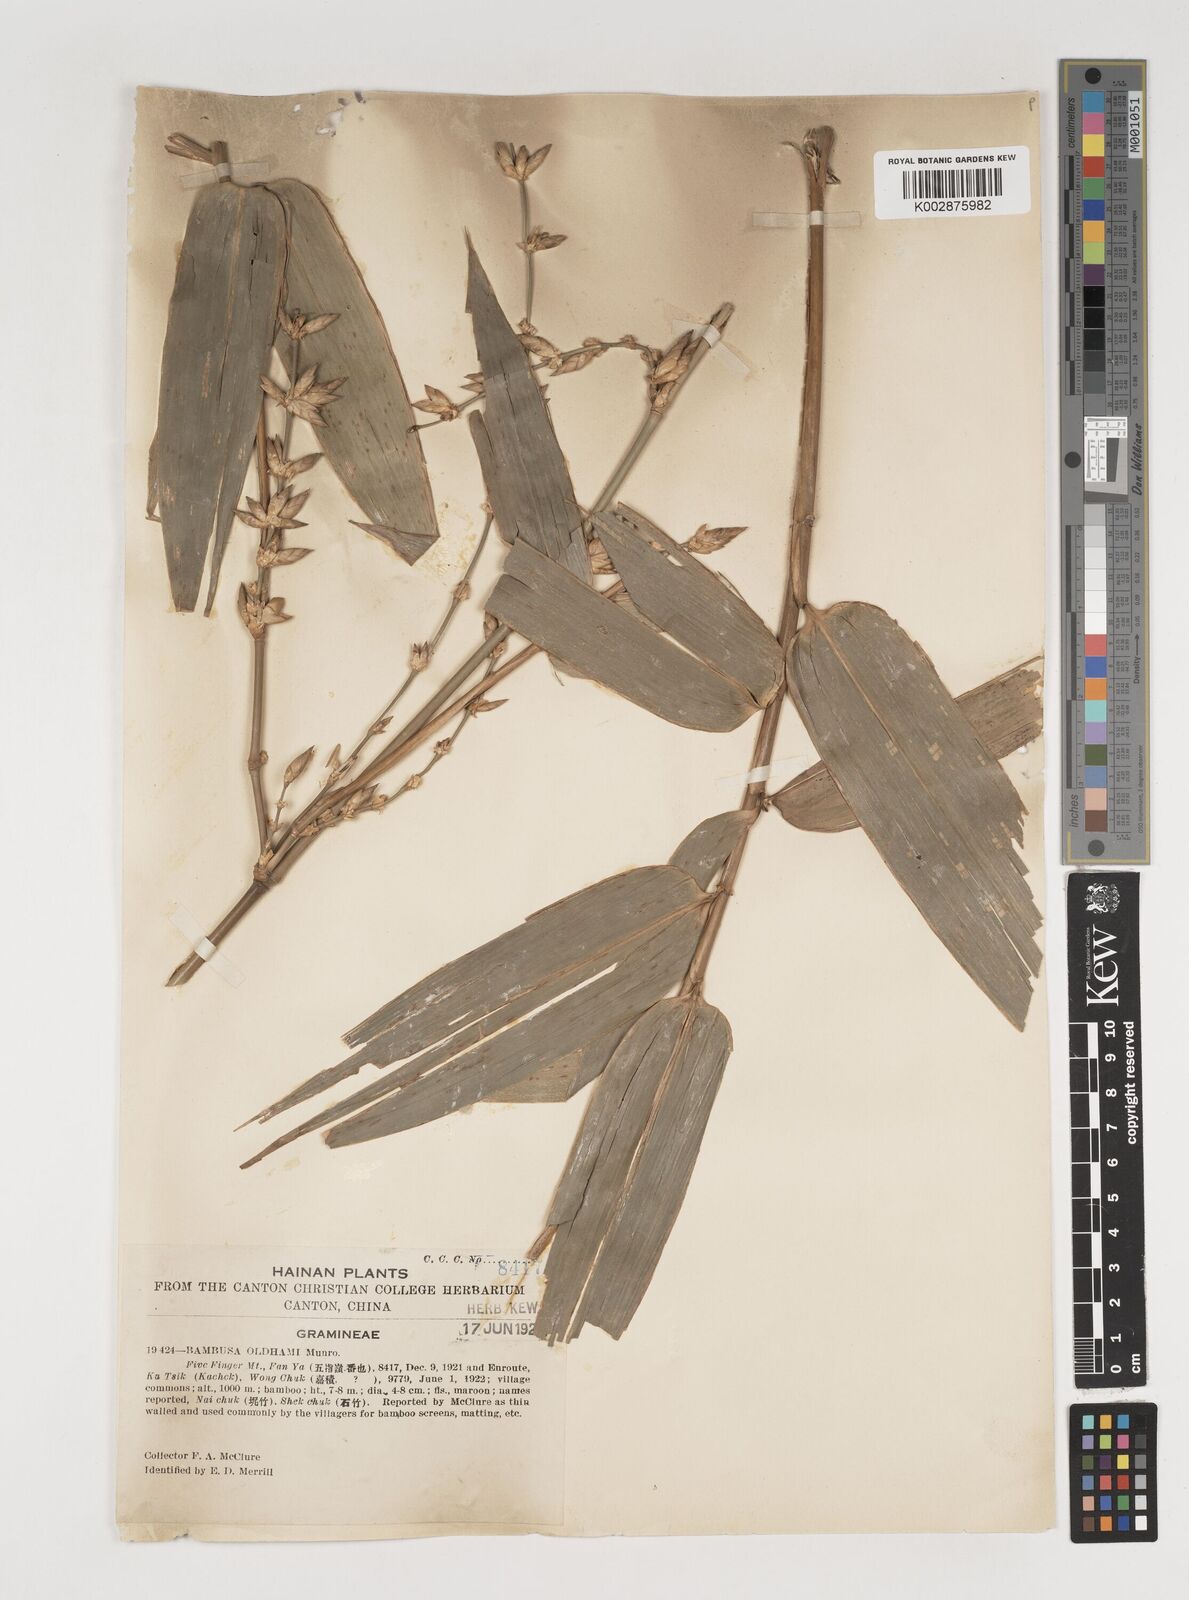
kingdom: Plantae
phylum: Tracheophyta
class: Liliopsida
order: Poales
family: Poaceae
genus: Bambusa
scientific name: Bambusa oldhamii
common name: Giant timber bamboo
